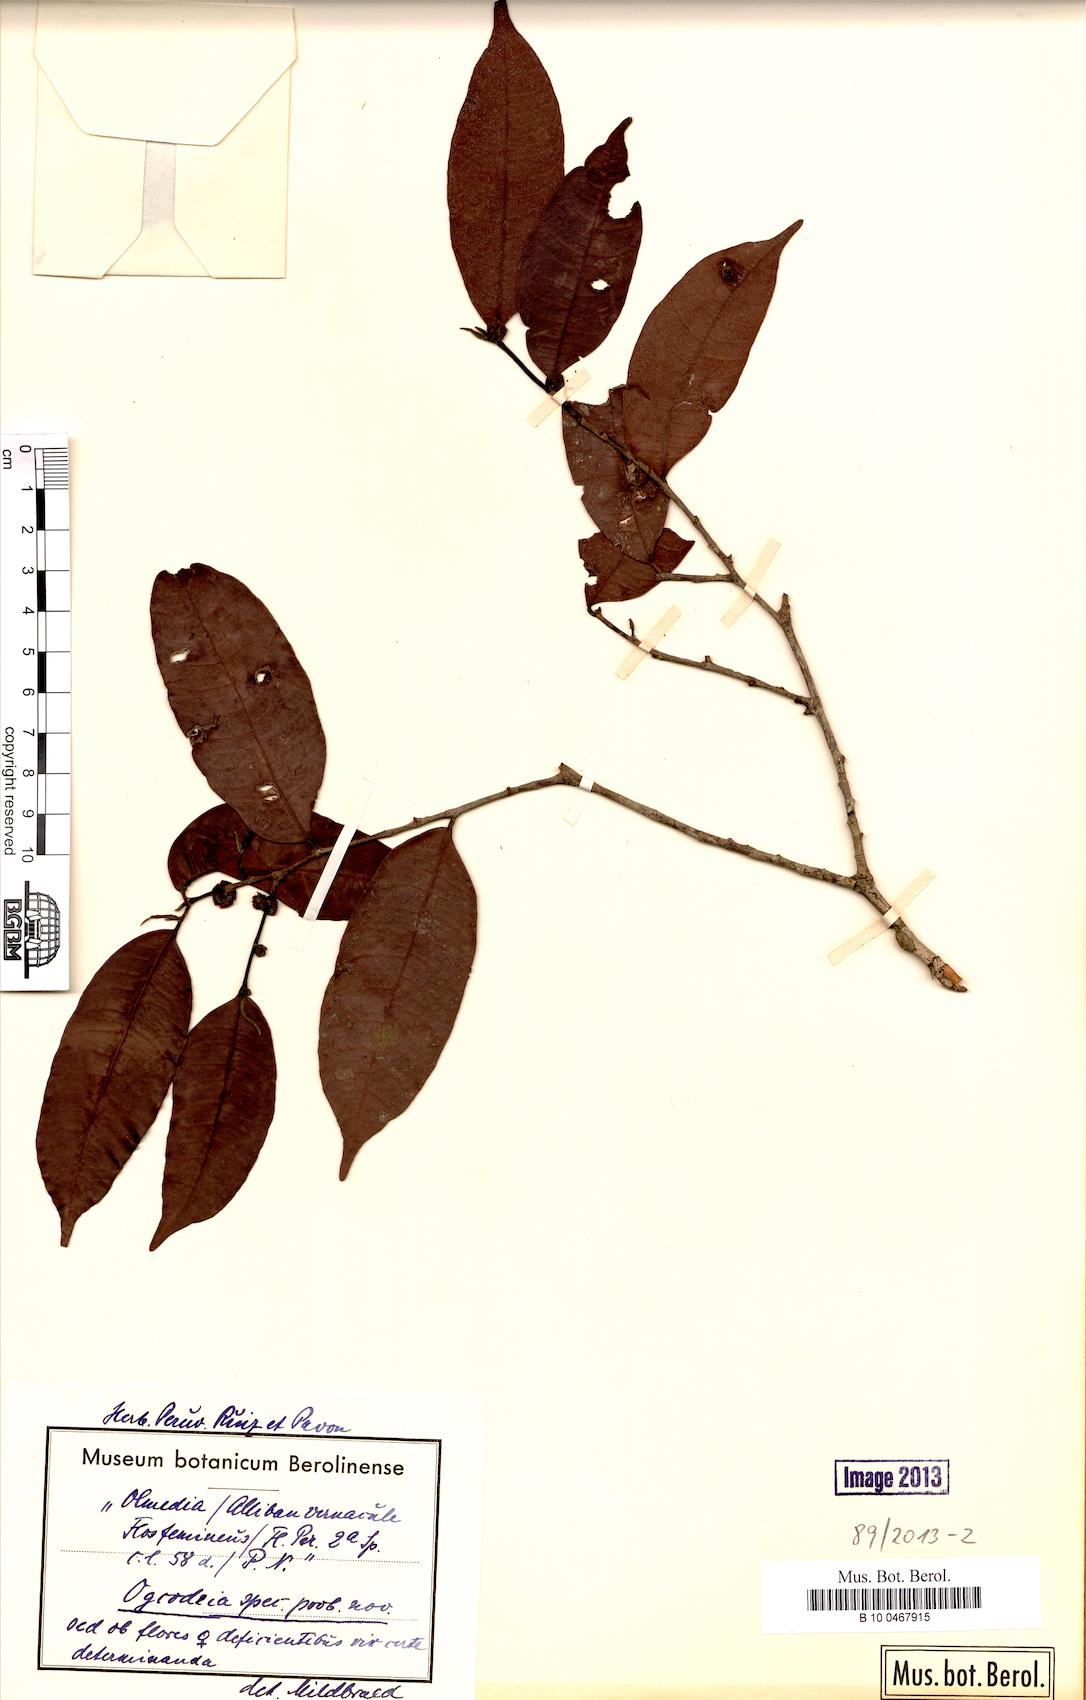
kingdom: Plantae
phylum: Tracheophyta
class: Magnoliopsida
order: Rosales
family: Moraceae
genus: Naucleopsis
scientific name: Naucleopsis
